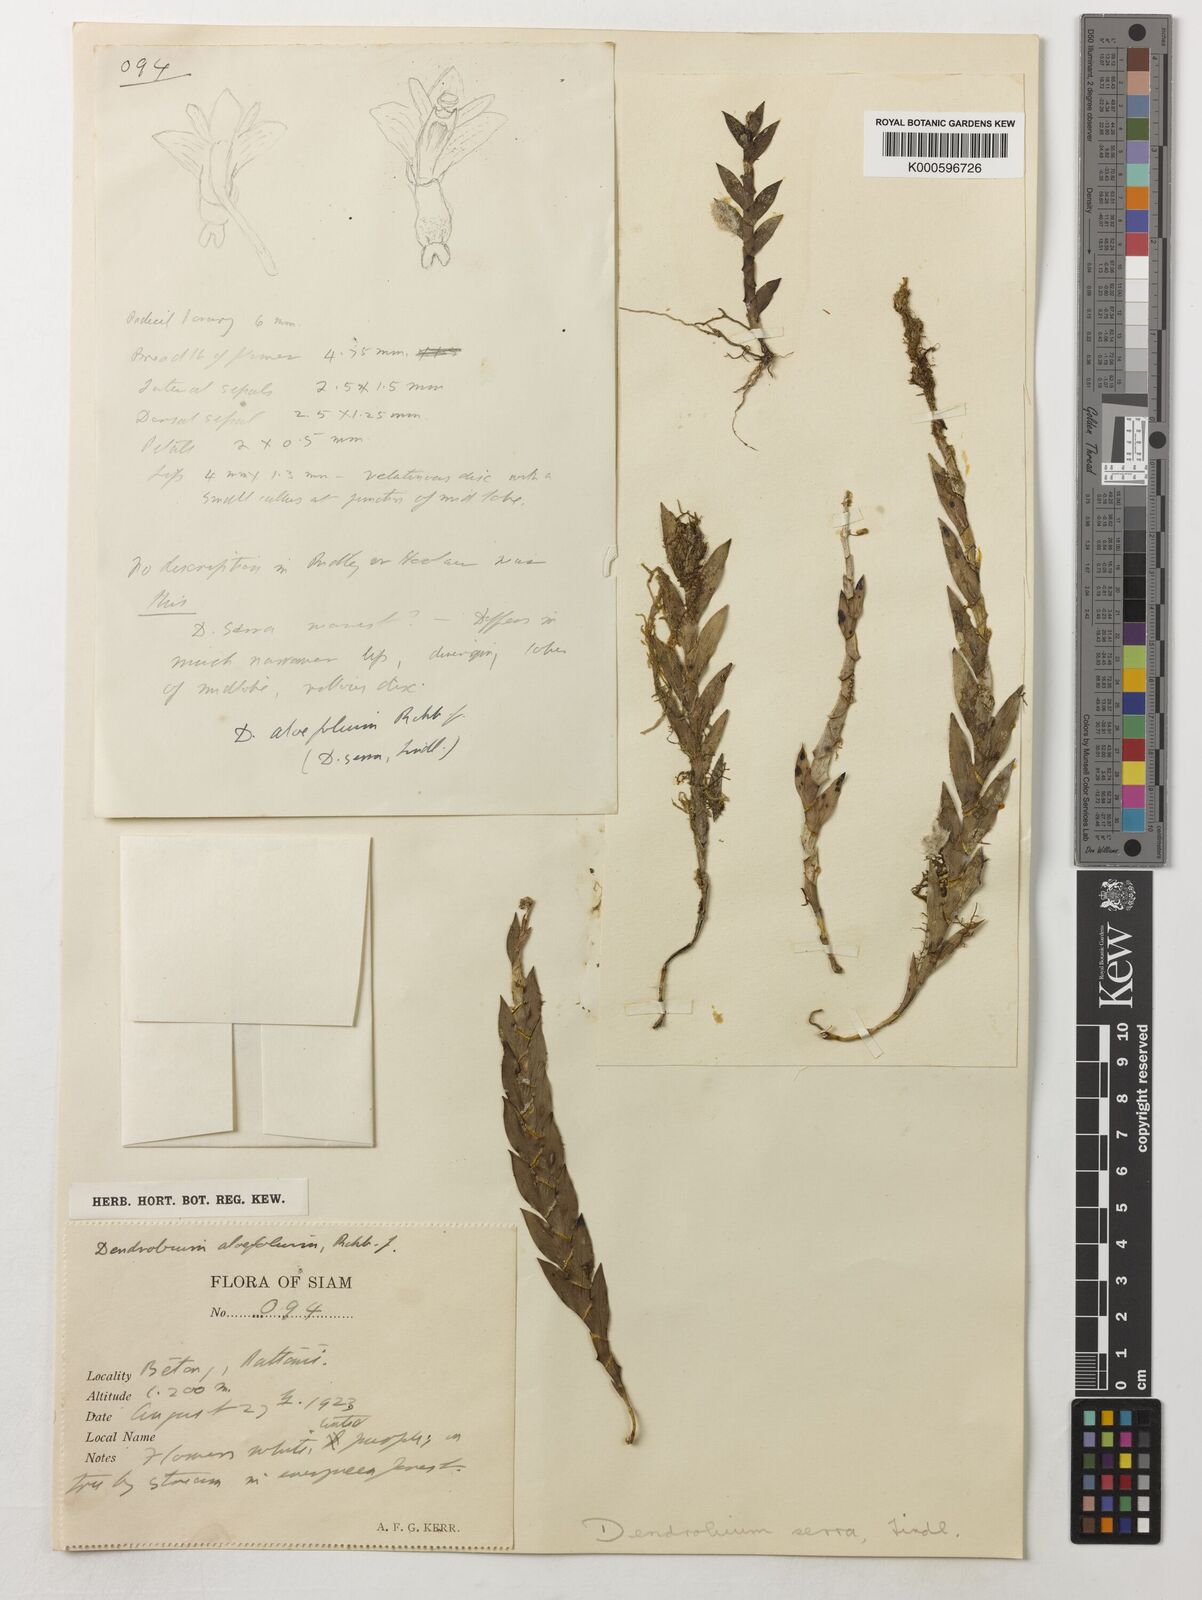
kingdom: Plantae
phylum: Tracheophyta
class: Liliopsida
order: Asparagales
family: Orchidaceae
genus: Dendrobium
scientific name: Dendrobium aloifolium
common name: Aloe-like dendrobium
